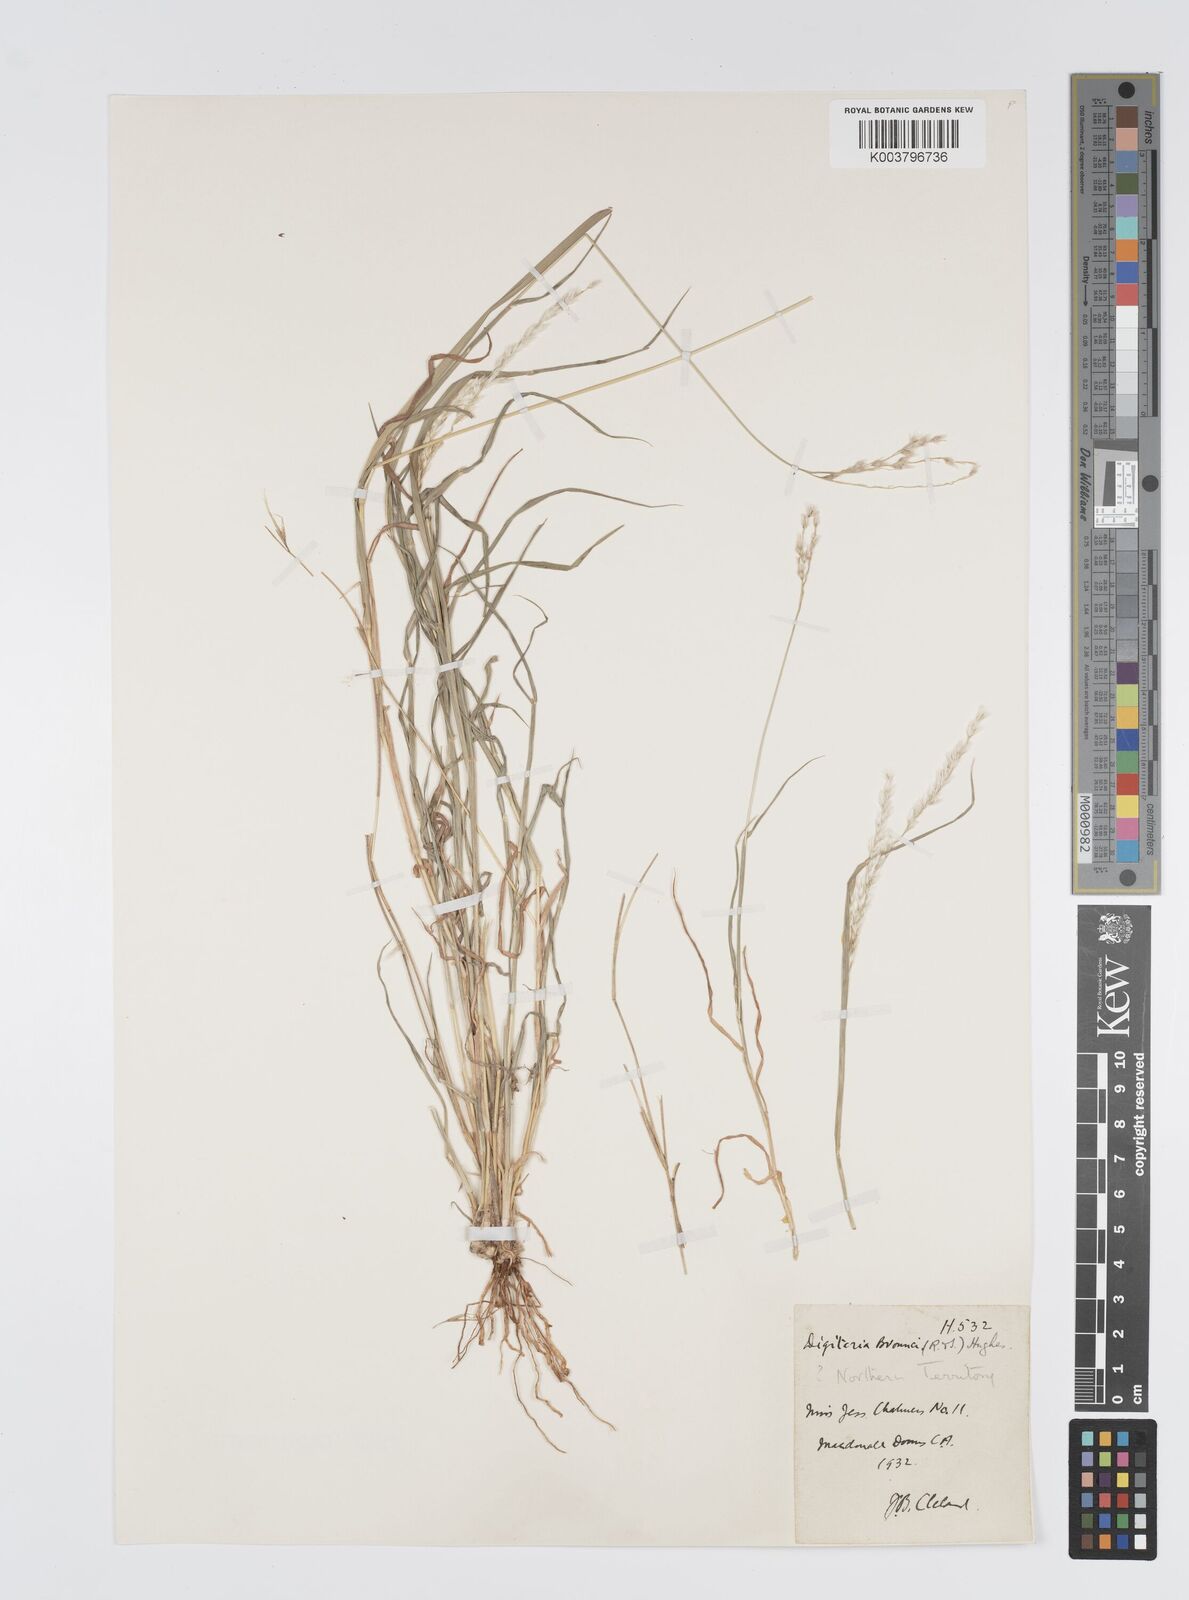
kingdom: Plantae
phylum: Tracheophyta
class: Liliopsida
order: Poales
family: Poaceae
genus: Digitaria
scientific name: Digitaria brownii
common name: Cotton grass
